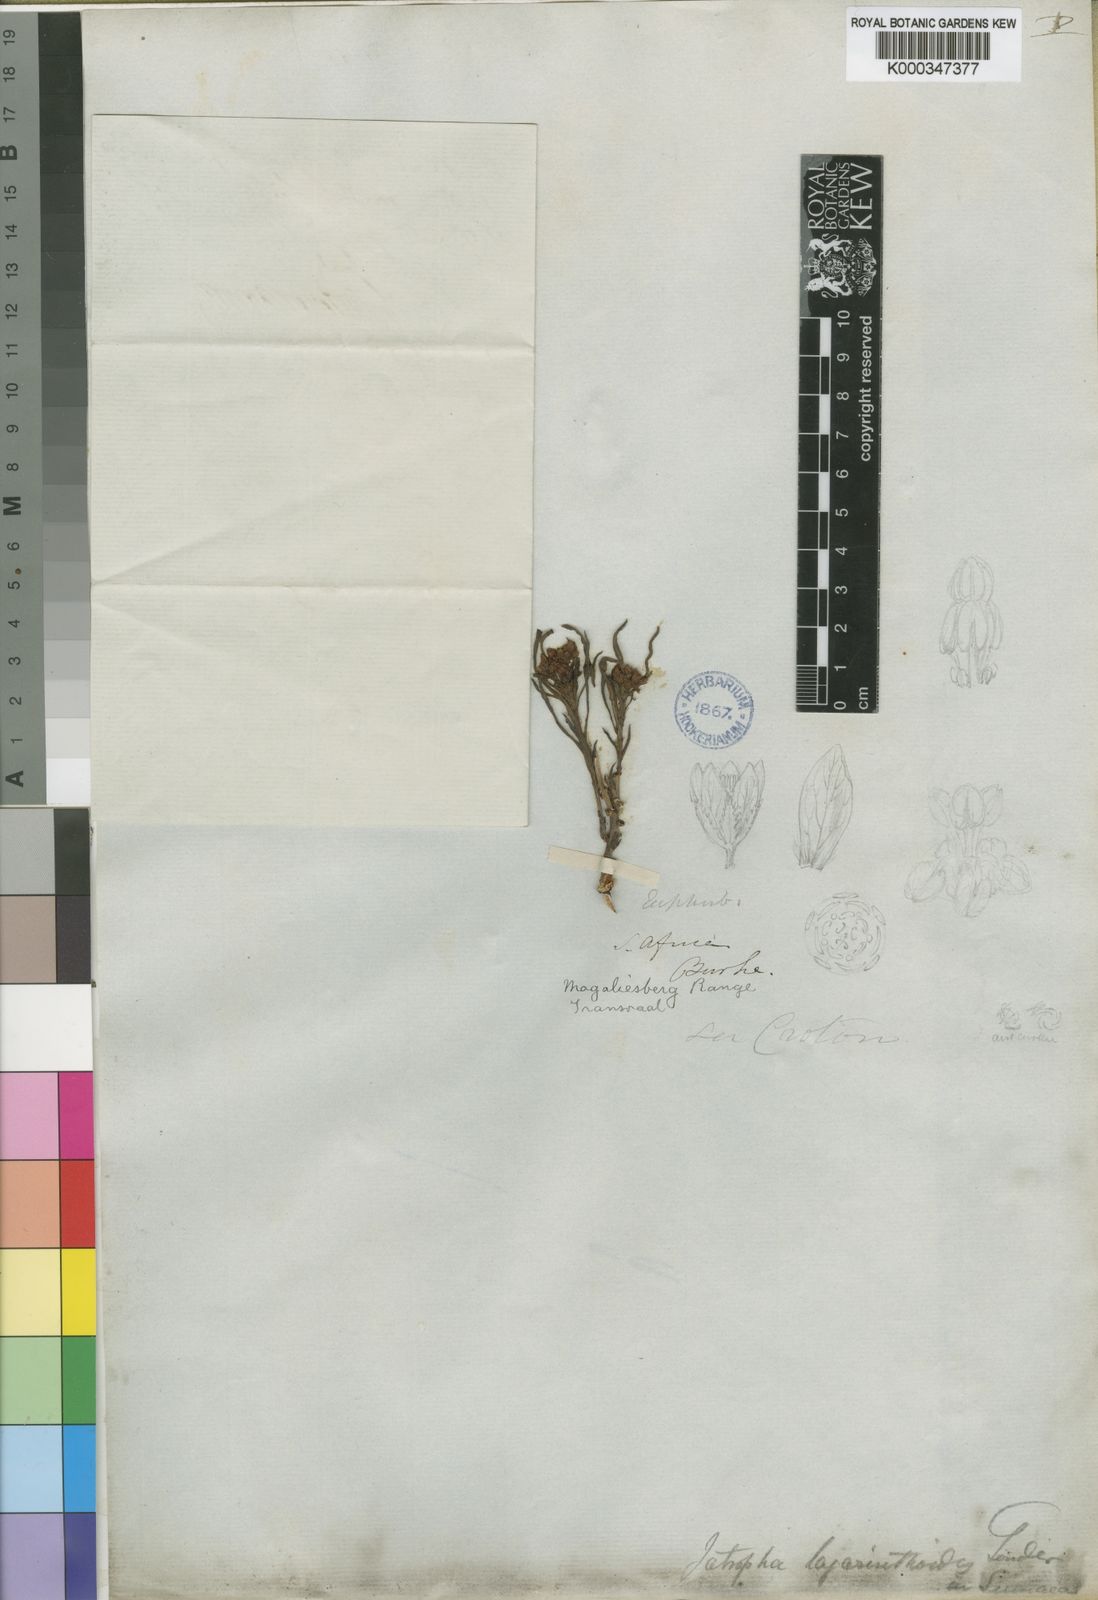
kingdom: Plantae
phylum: Tracheophyta
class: Magnoliopsida
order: Malpighiales
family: Euphorbiaceae
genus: Jatropha
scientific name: Jatropha lagarinthoides
